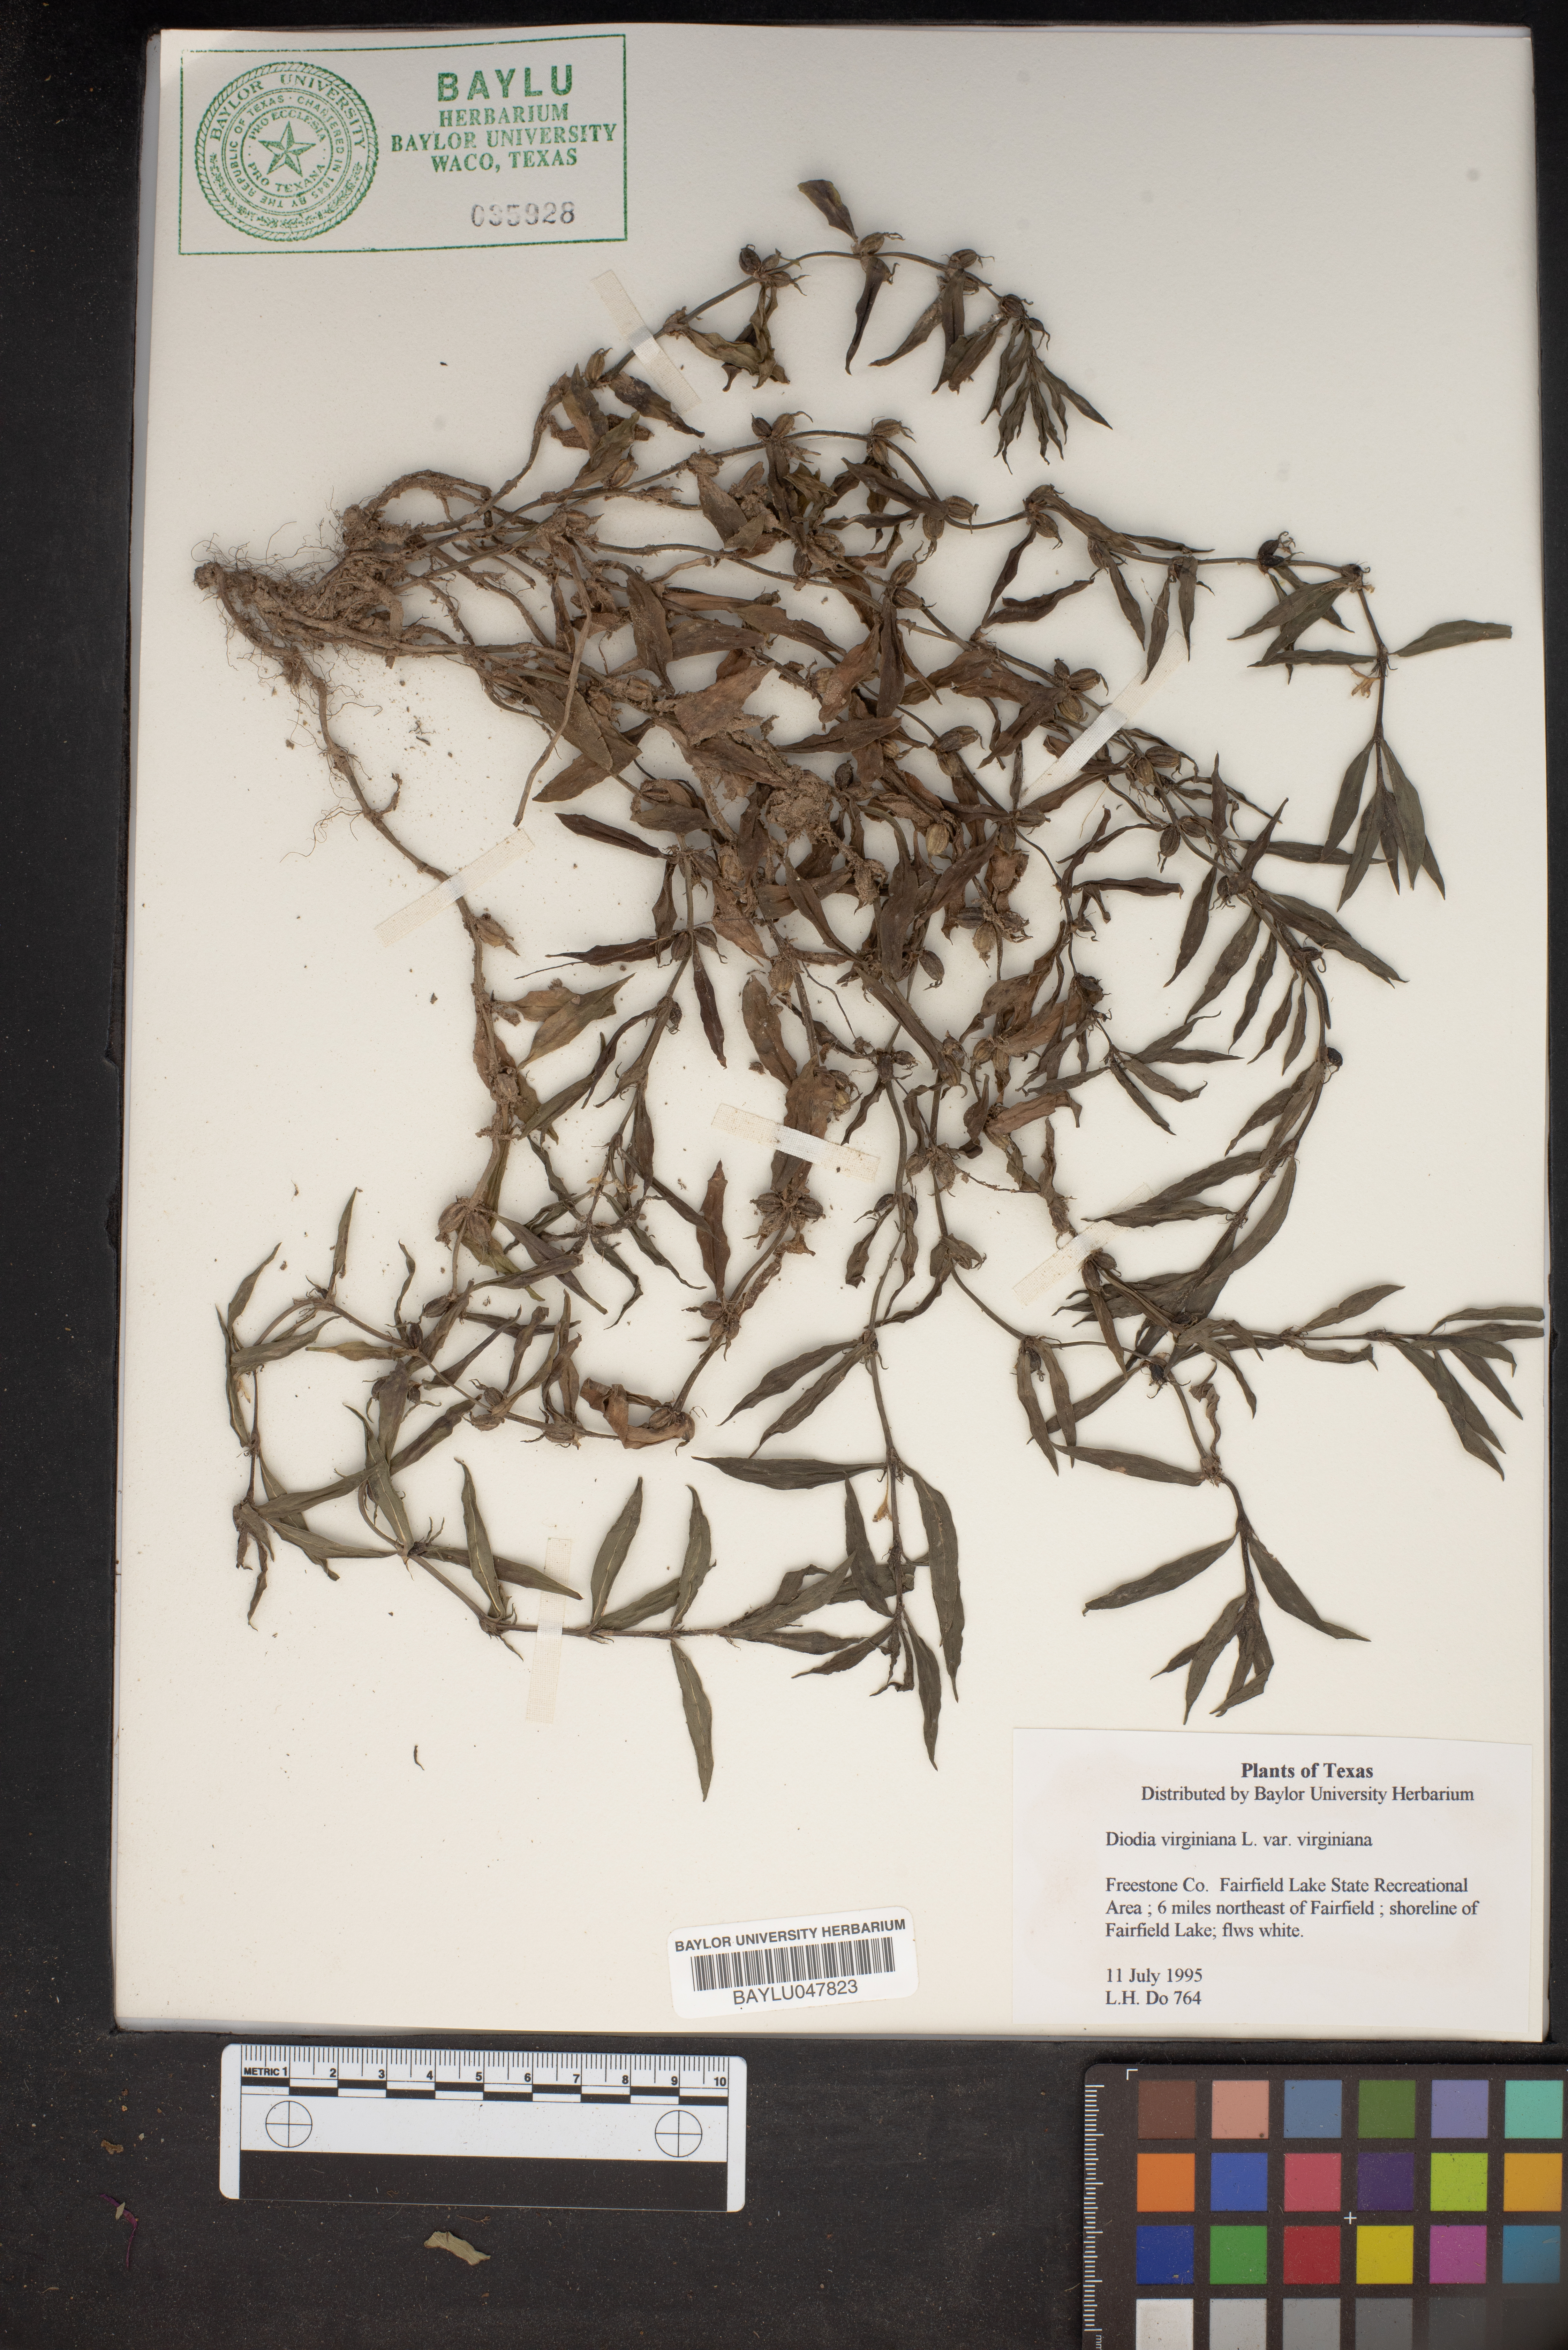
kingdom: Plantae
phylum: Tracheophyta
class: Magnoliopsida
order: Gentianales
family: Rubiaceae
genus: Diodia
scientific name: Diodia virginiana
